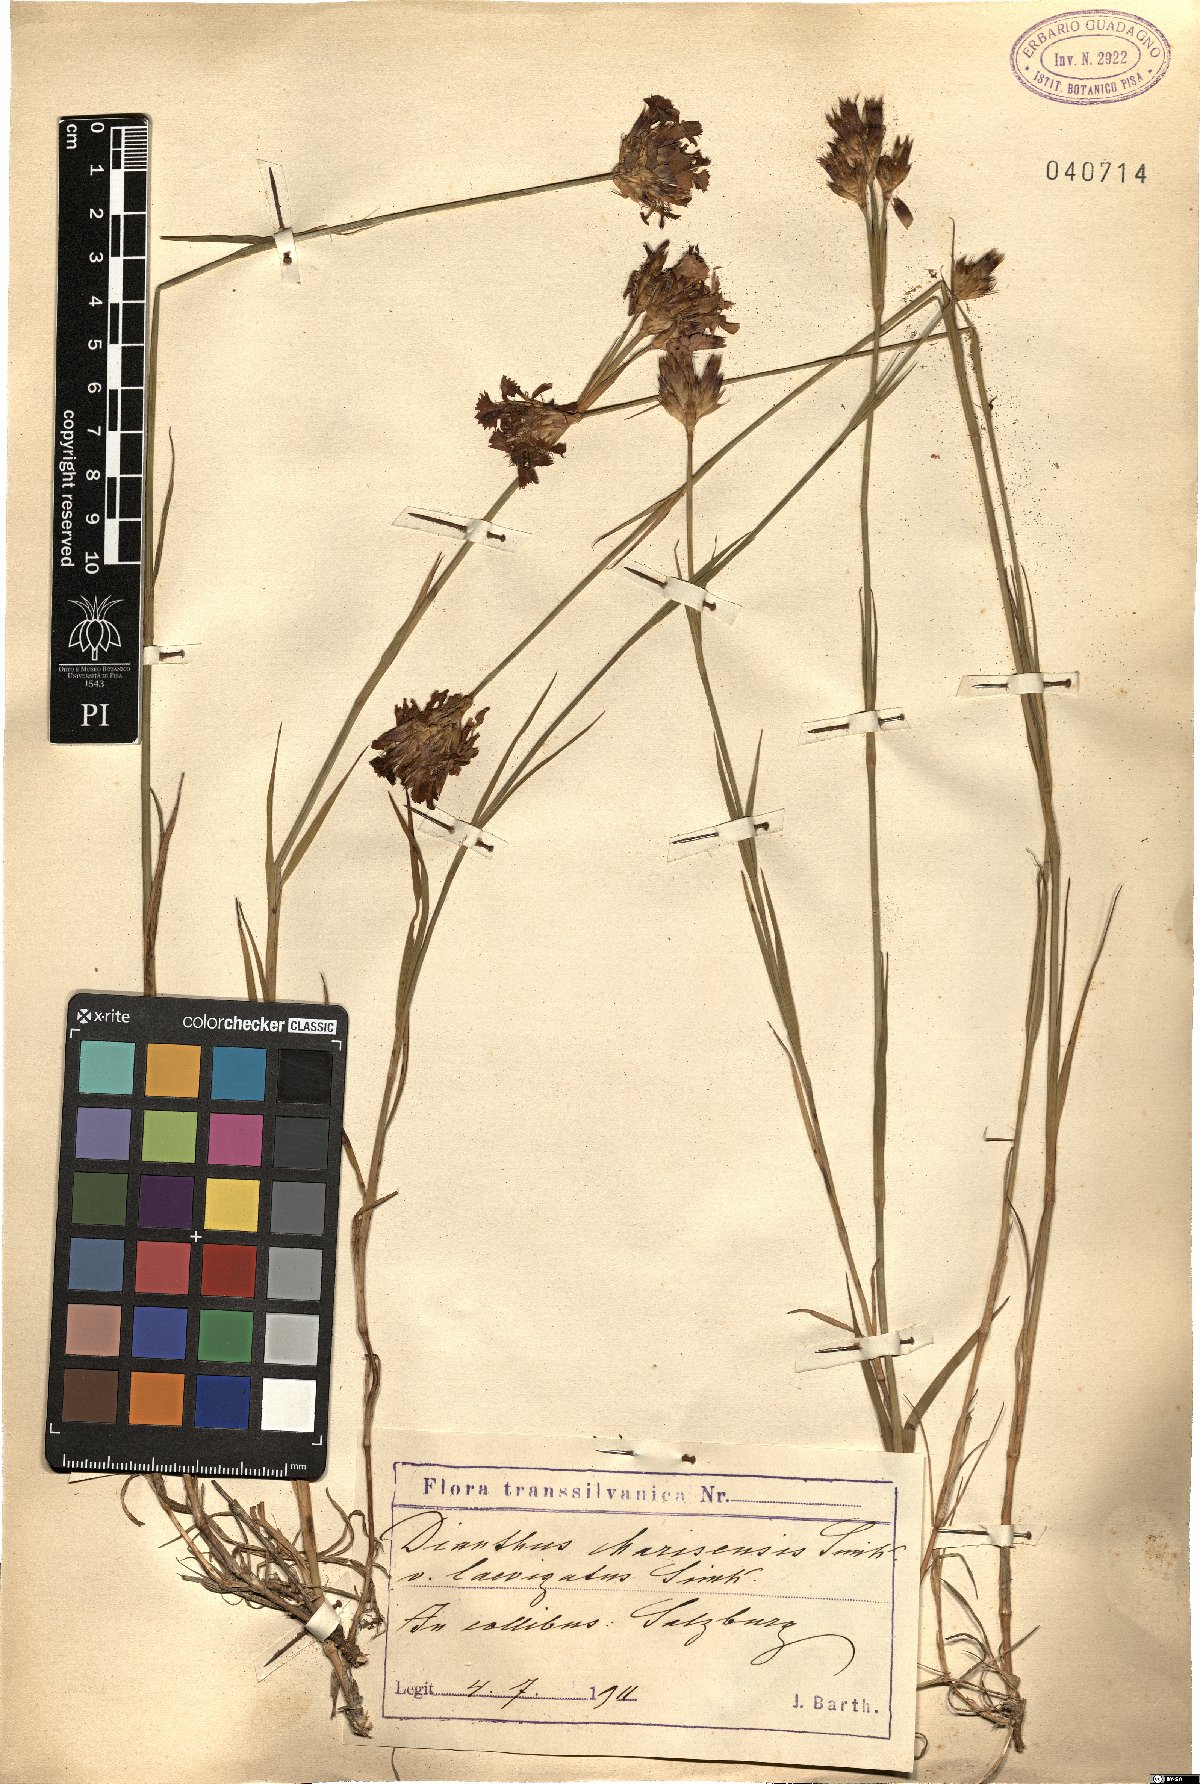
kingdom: Plantae
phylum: Tracheophyta
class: Magnoliopsida
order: Caryophyllales
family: Caryophyllaceae
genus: Dianthus
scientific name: Dianthus marisensis
